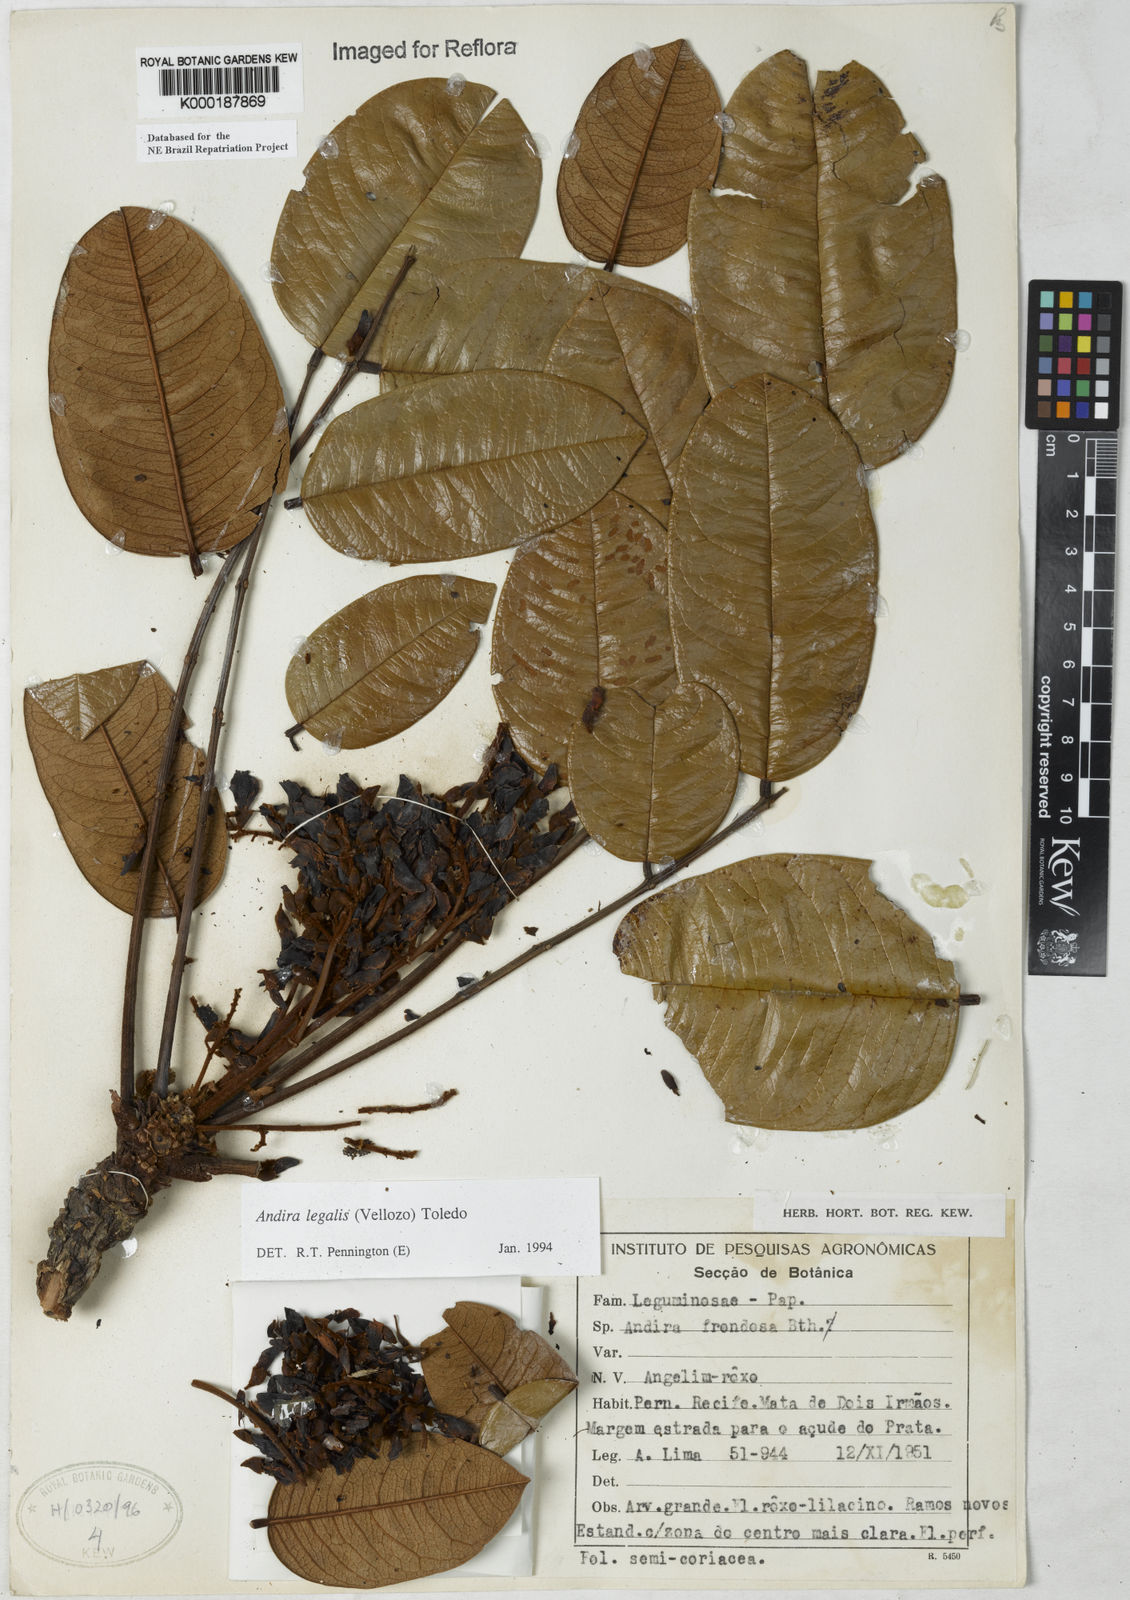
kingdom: Plantae
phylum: Tracheophyta
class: Magnoliopsida
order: Fabales
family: Fabaceae
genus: Andira
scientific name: Andira legalis
